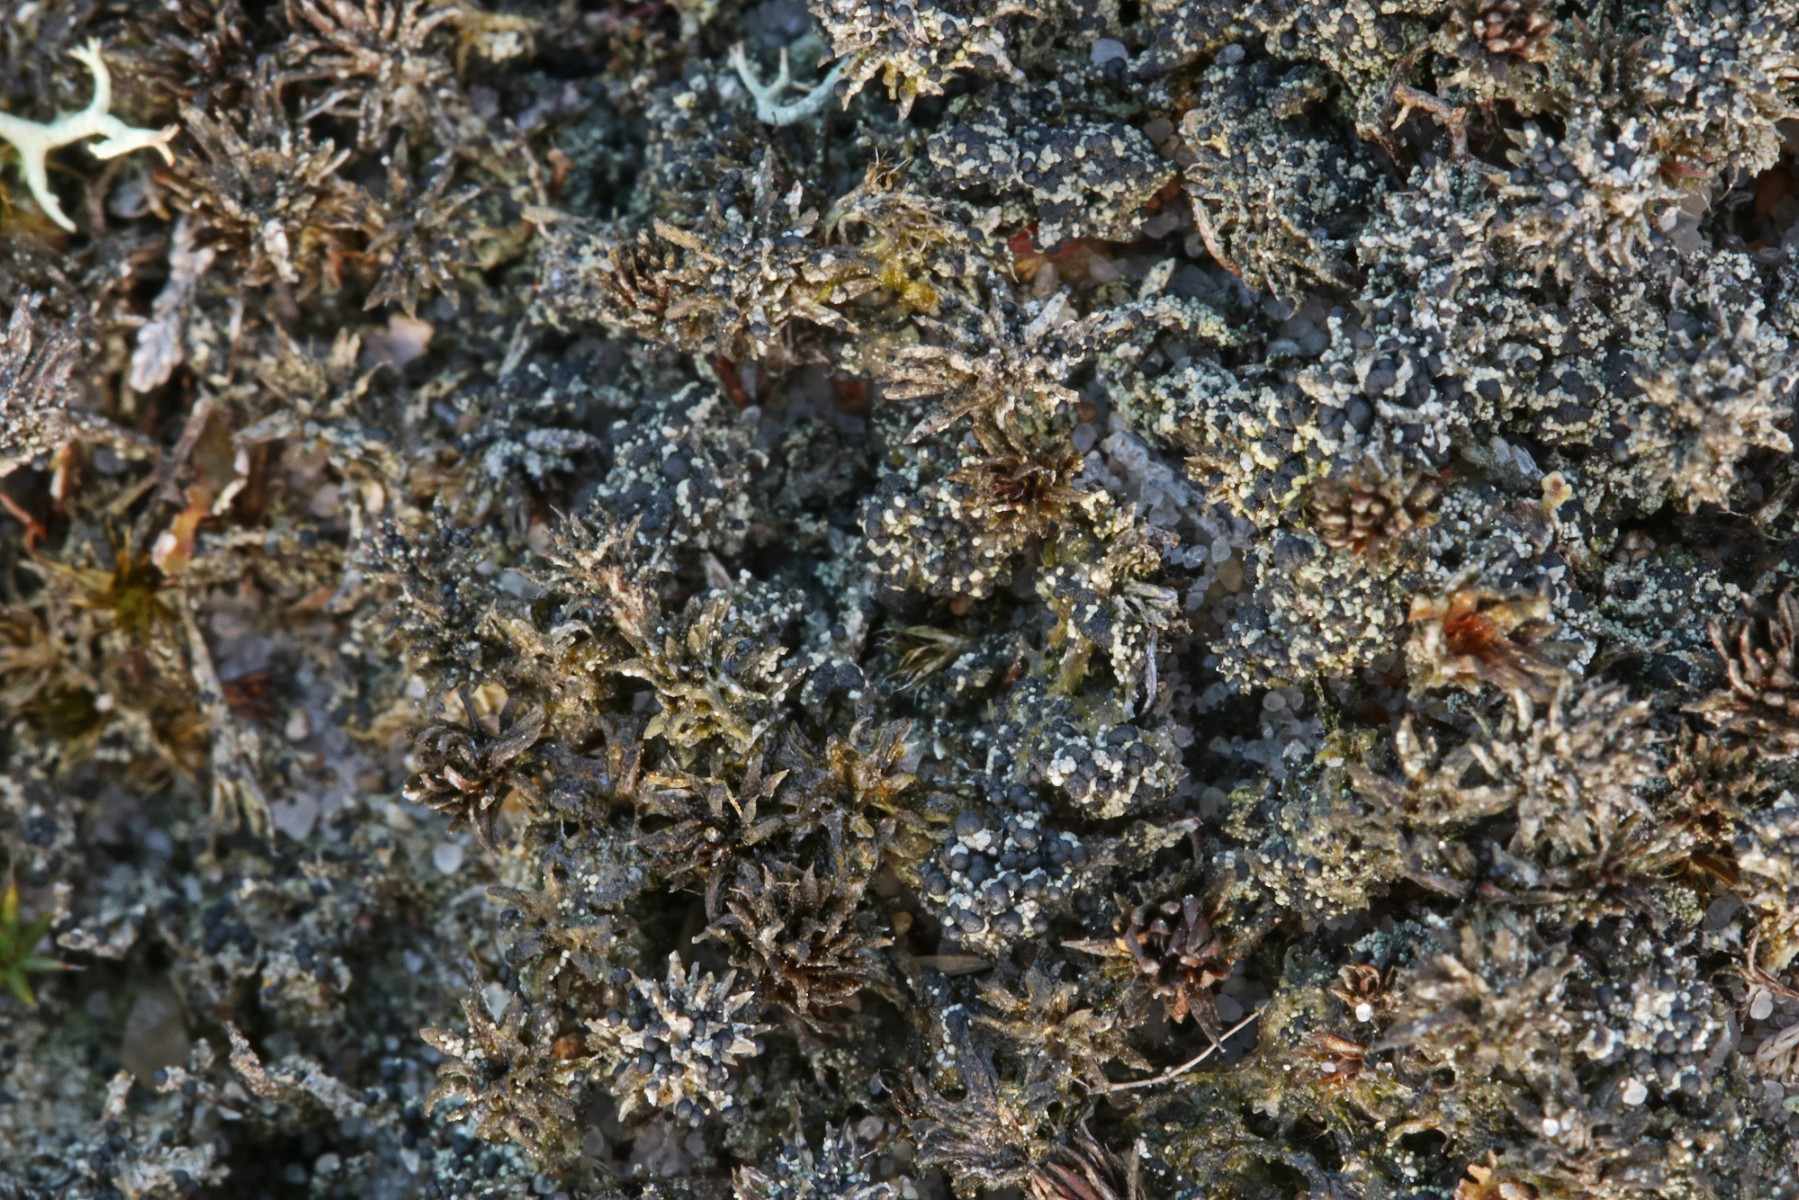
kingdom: Fungi
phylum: Ascomycota
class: Lecanoromycetes
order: Lecanorales
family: Byssolomataceae
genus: Micarea
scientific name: Micarea lignaria
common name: tørve-knaplav
